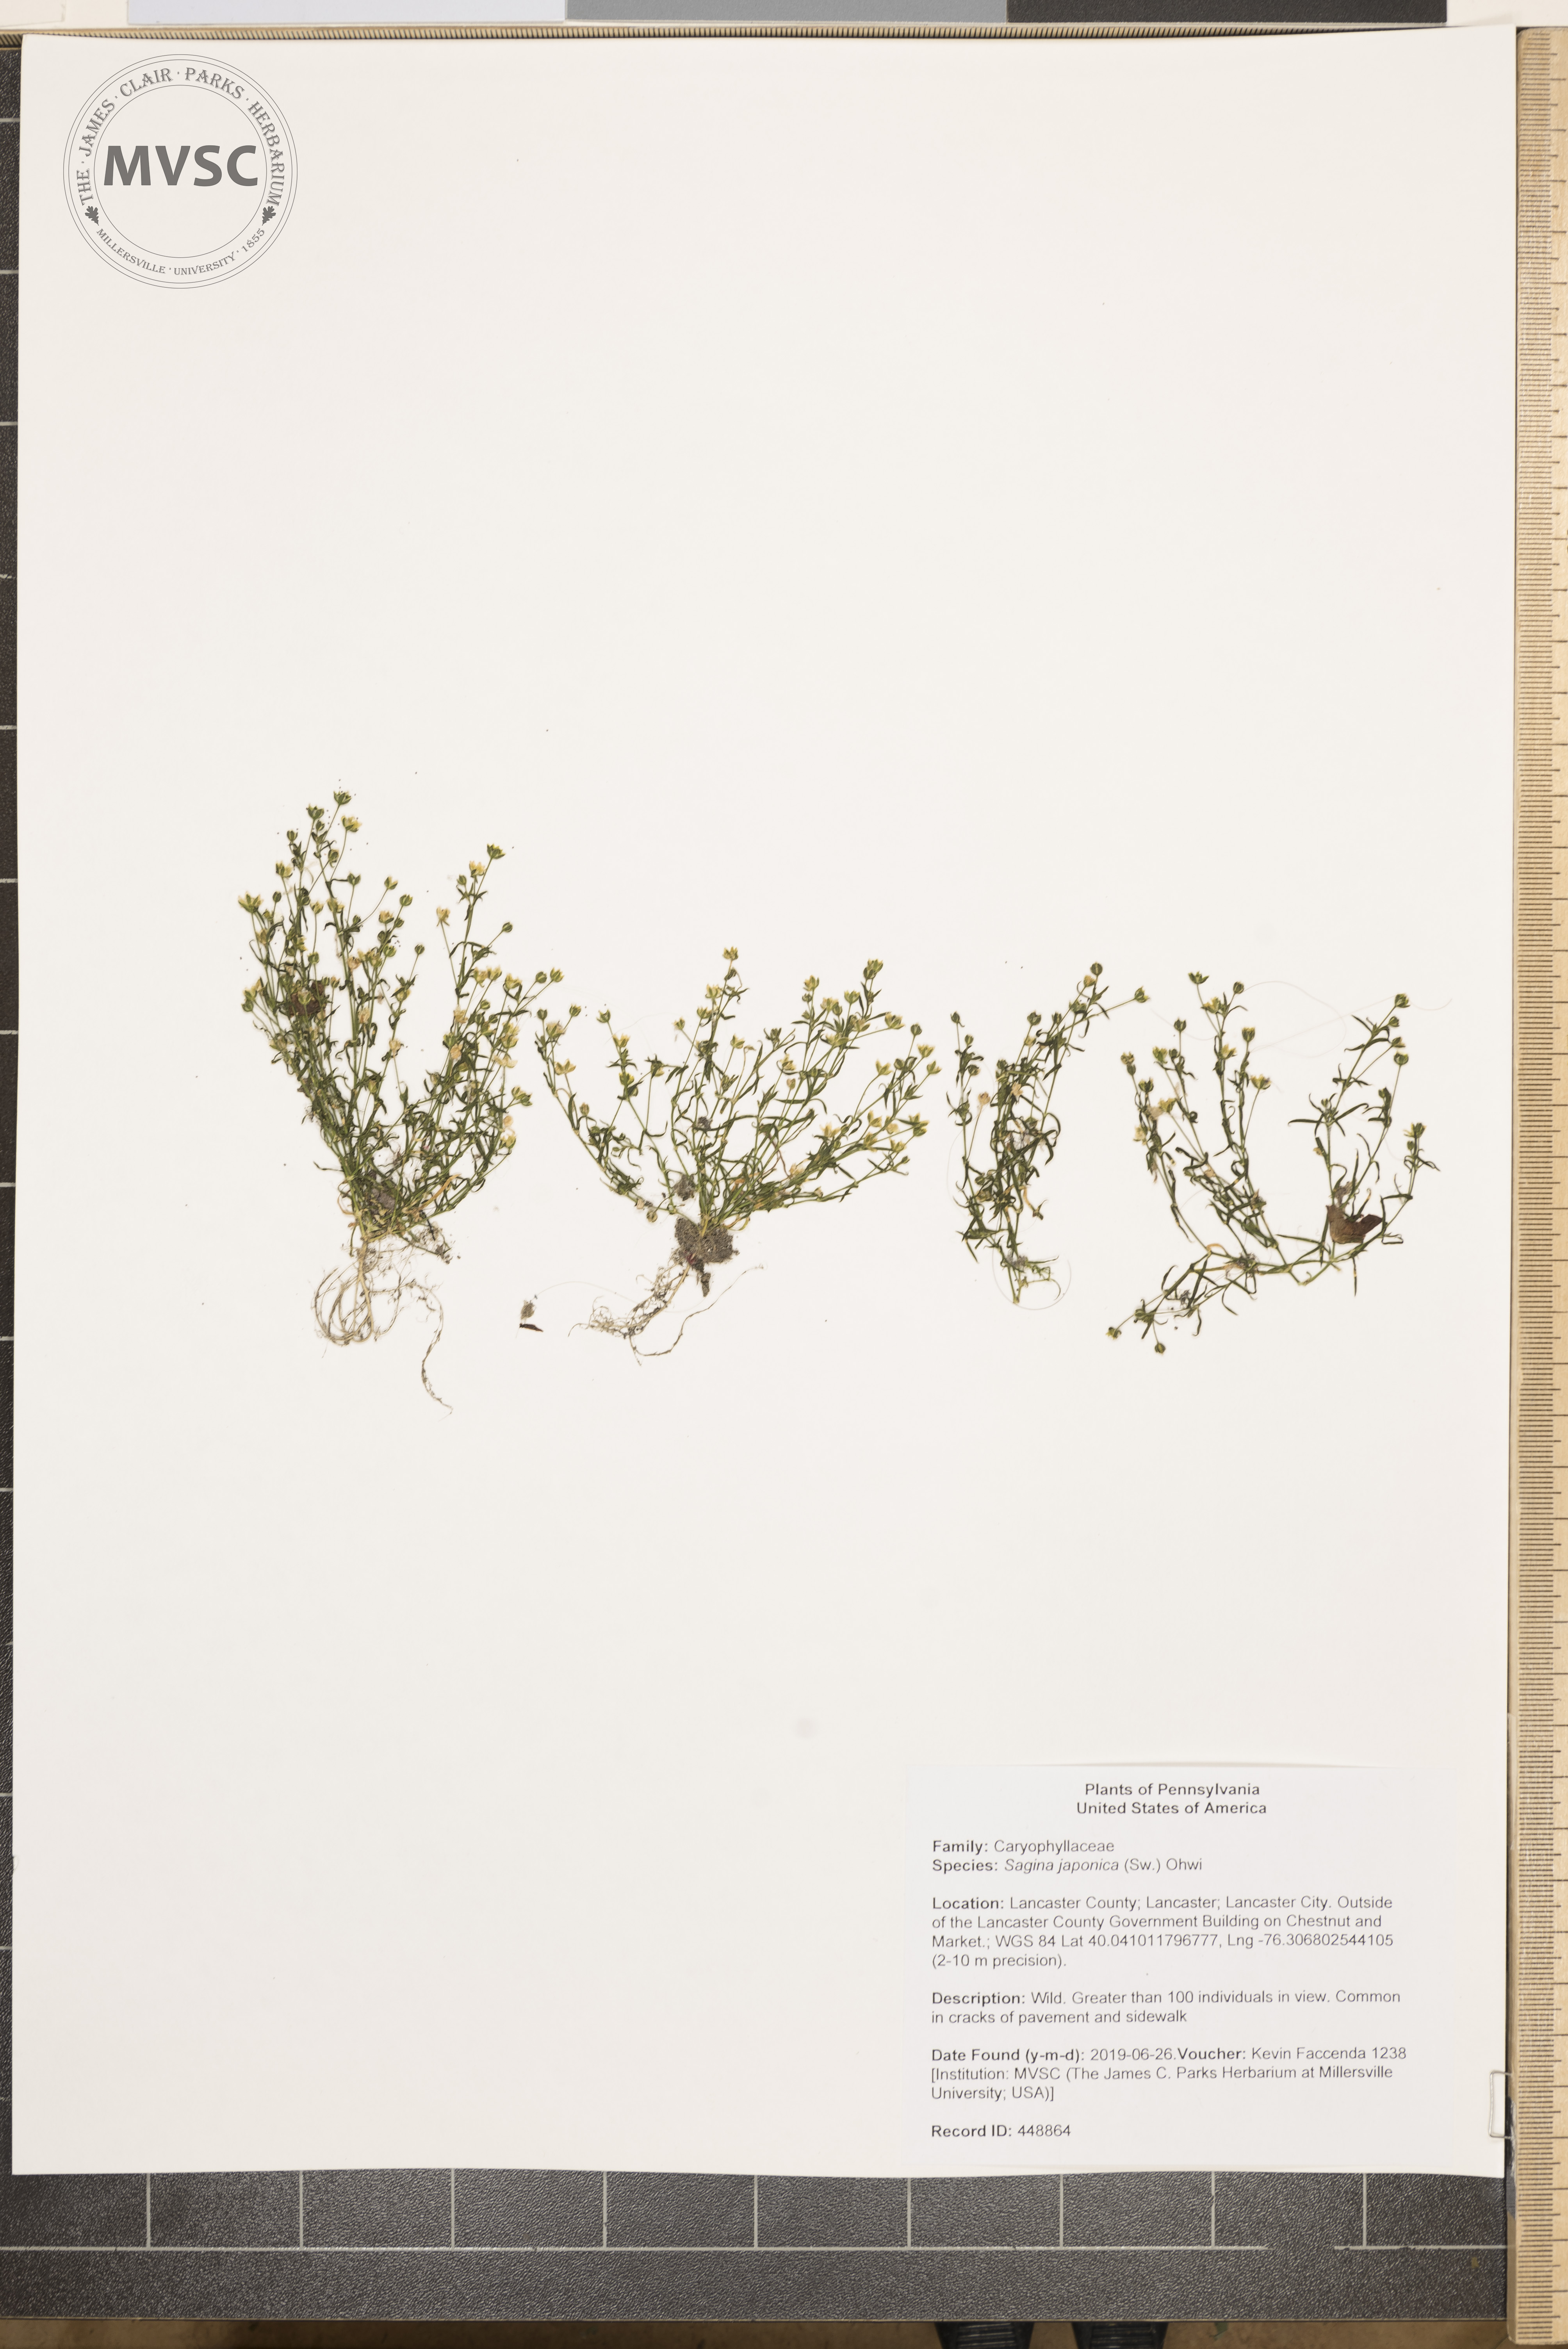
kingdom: Plantae
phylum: Tracheophyta
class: Magnoliopsida
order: Caryophyllales
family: Caryophyllaceae
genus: Sagina
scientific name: Sagina japonica
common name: Japanese pearlwort
